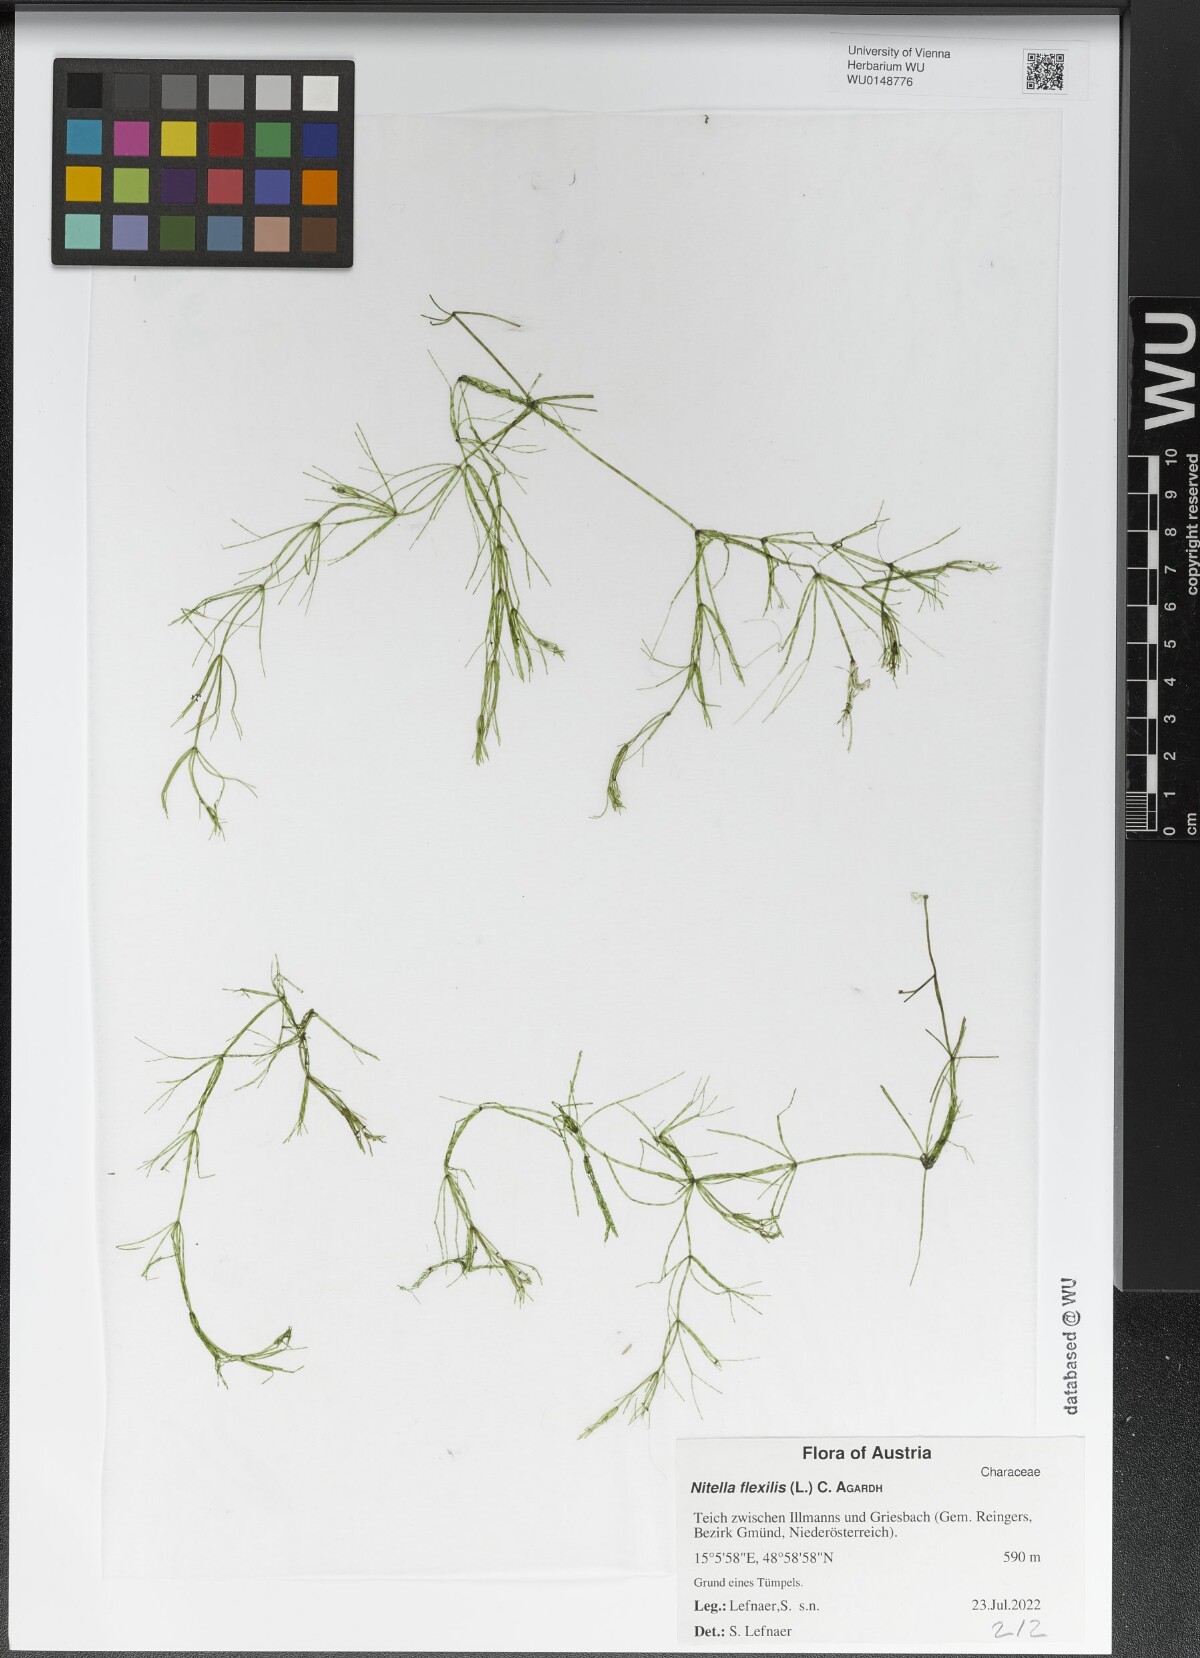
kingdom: Plantae
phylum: Charophyta
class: Charophyceae
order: Charales
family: Characeae
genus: Nitella
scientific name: Nitella flexilis
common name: Smooth stonewort
